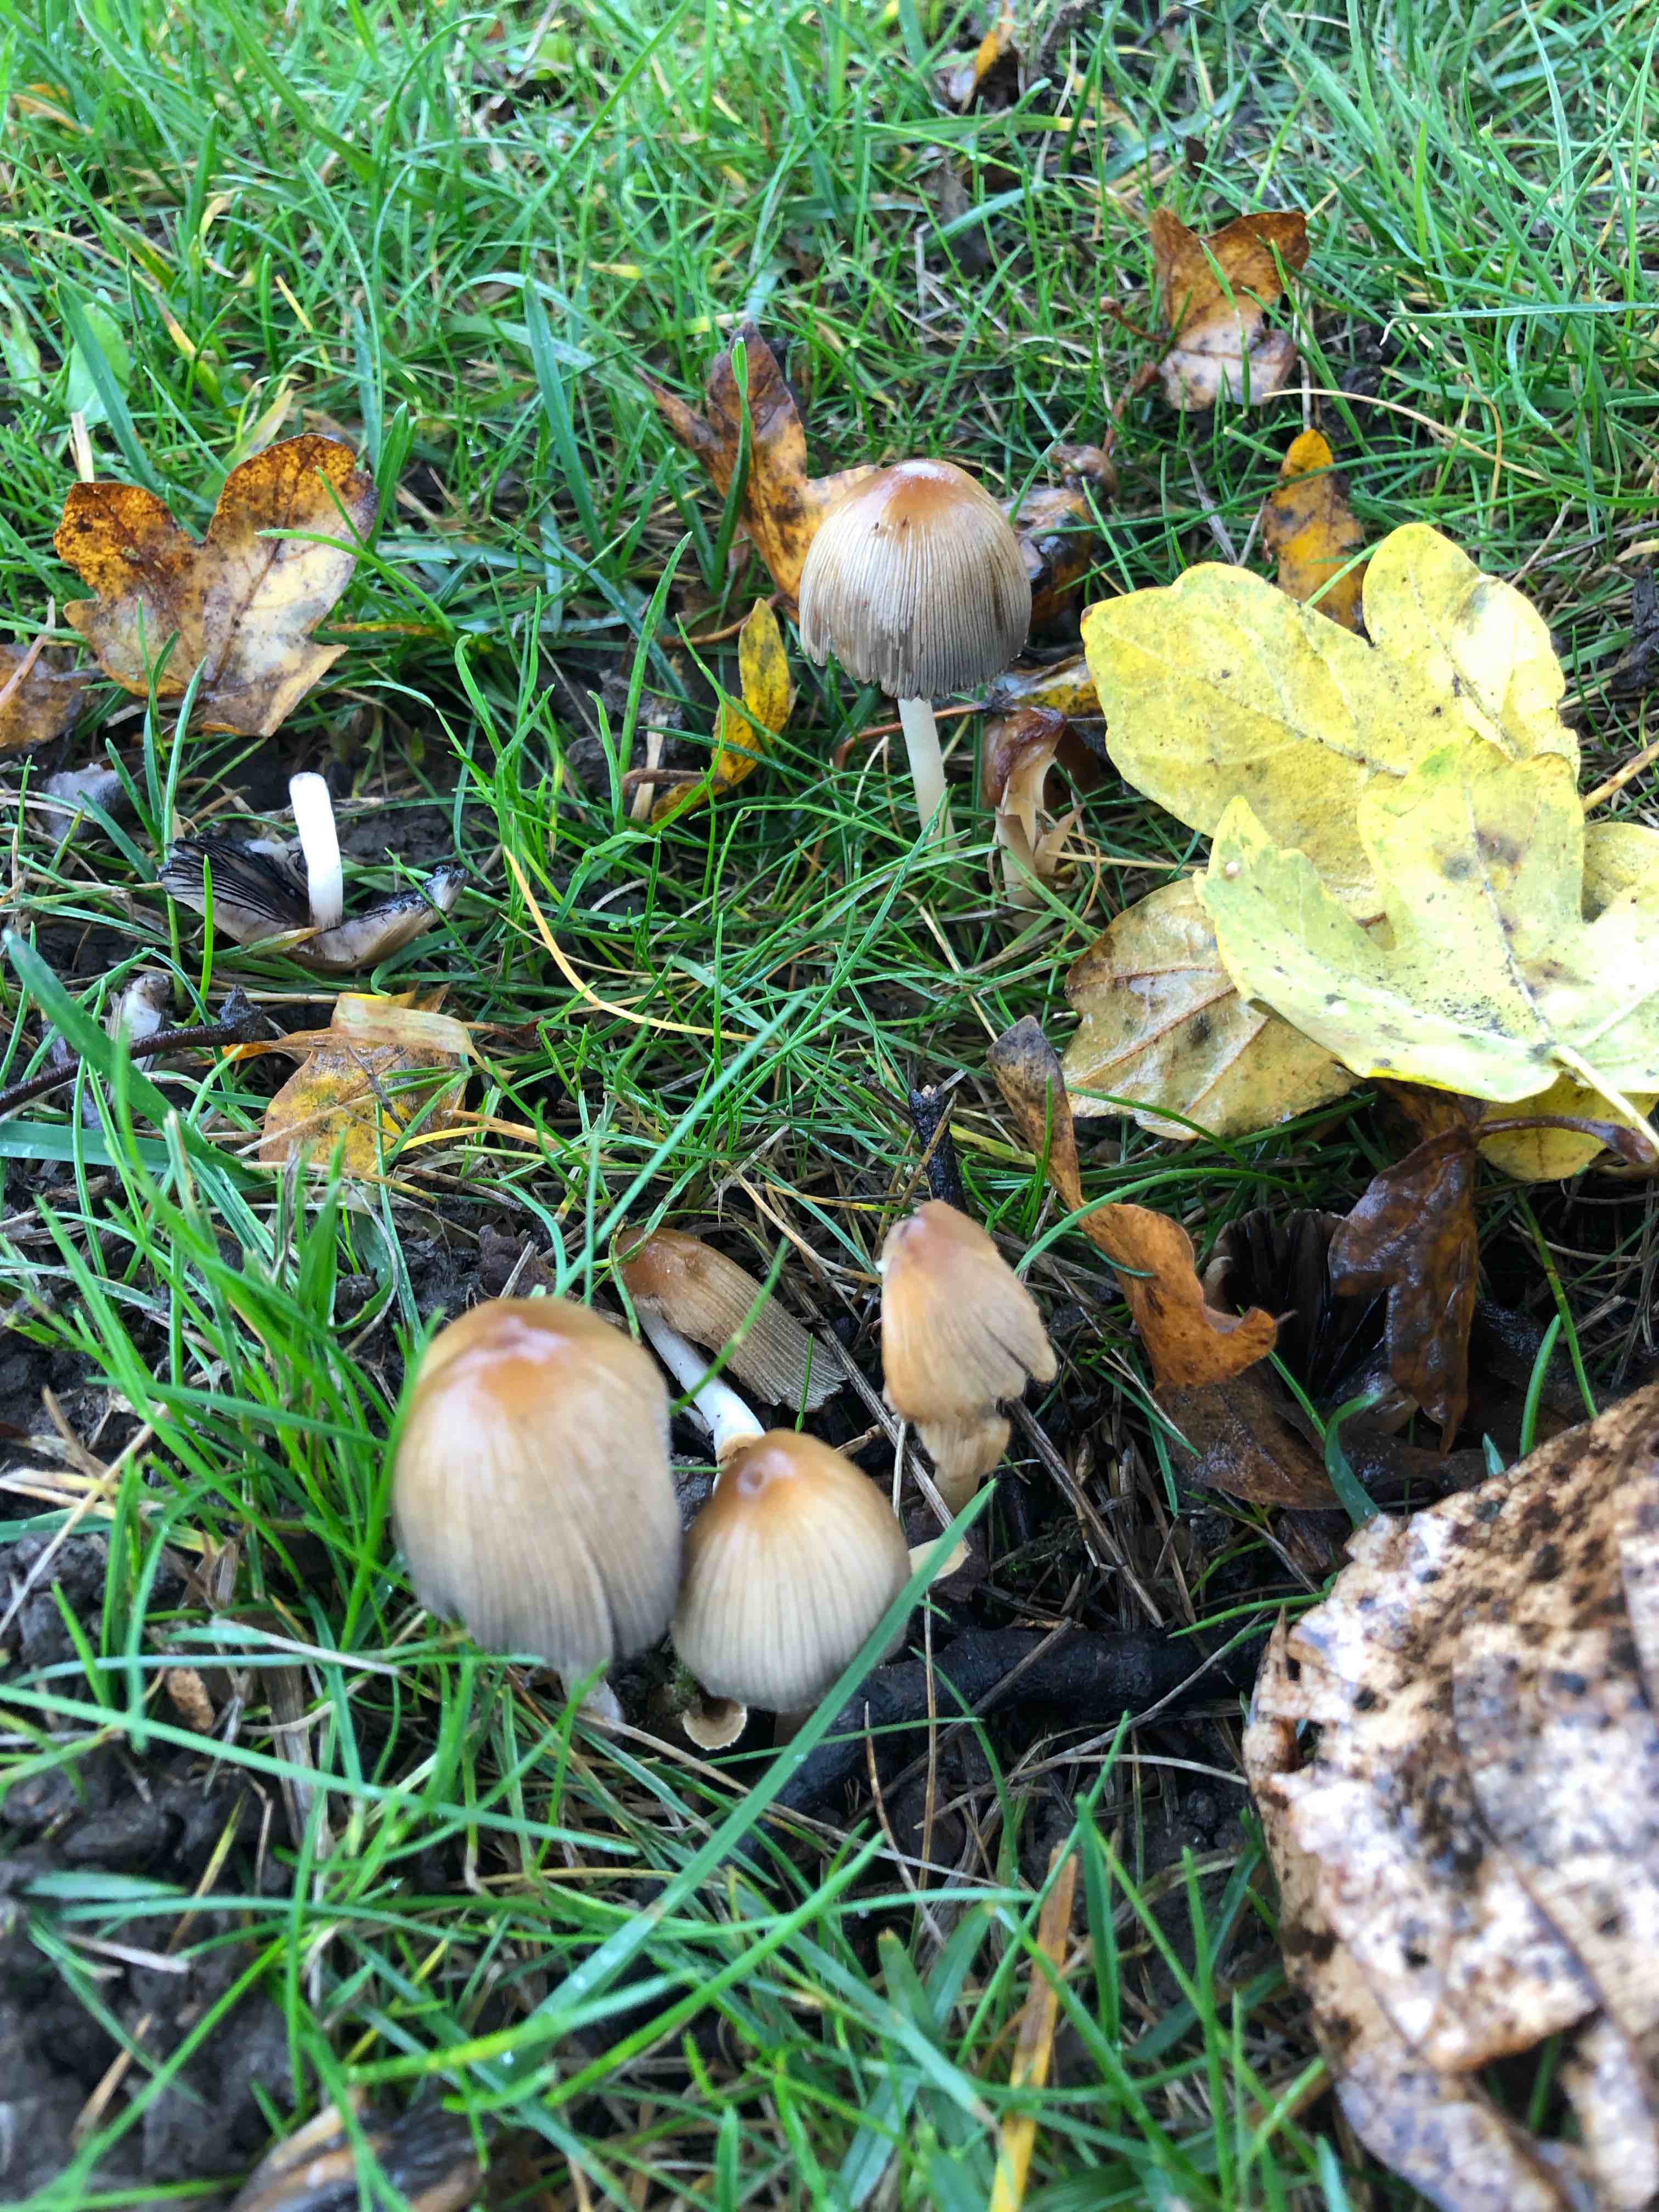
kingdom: Fungi
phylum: Basidiomycota
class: Agaricomycetes
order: Agaricales
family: Psathyrellaceae
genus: Coprinellus
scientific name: Coprinellus micaceus
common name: glimmer-blækhat
